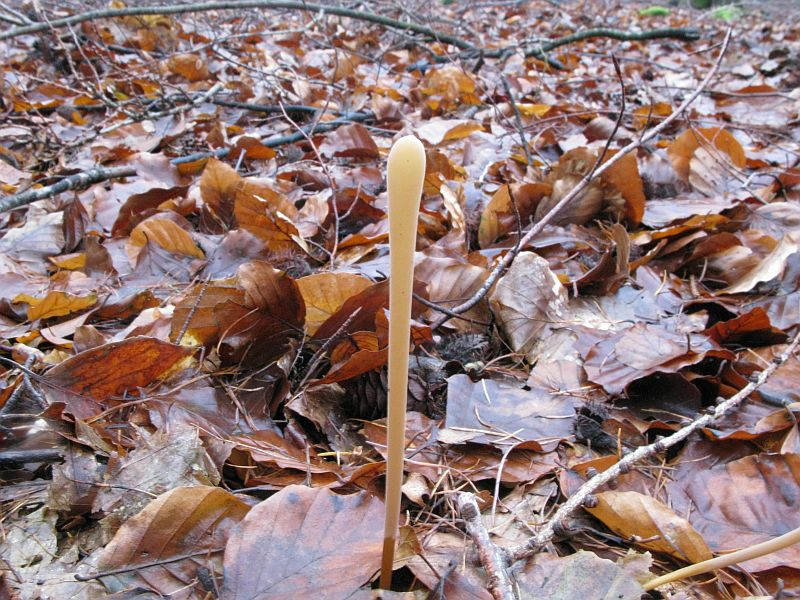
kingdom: Fungi
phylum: Basidiomycota
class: Agaricomycetes
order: Agaricales
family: Typhulaceae
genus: Typhula
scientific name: Typhula fistulosa
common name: pibet rørkølle
